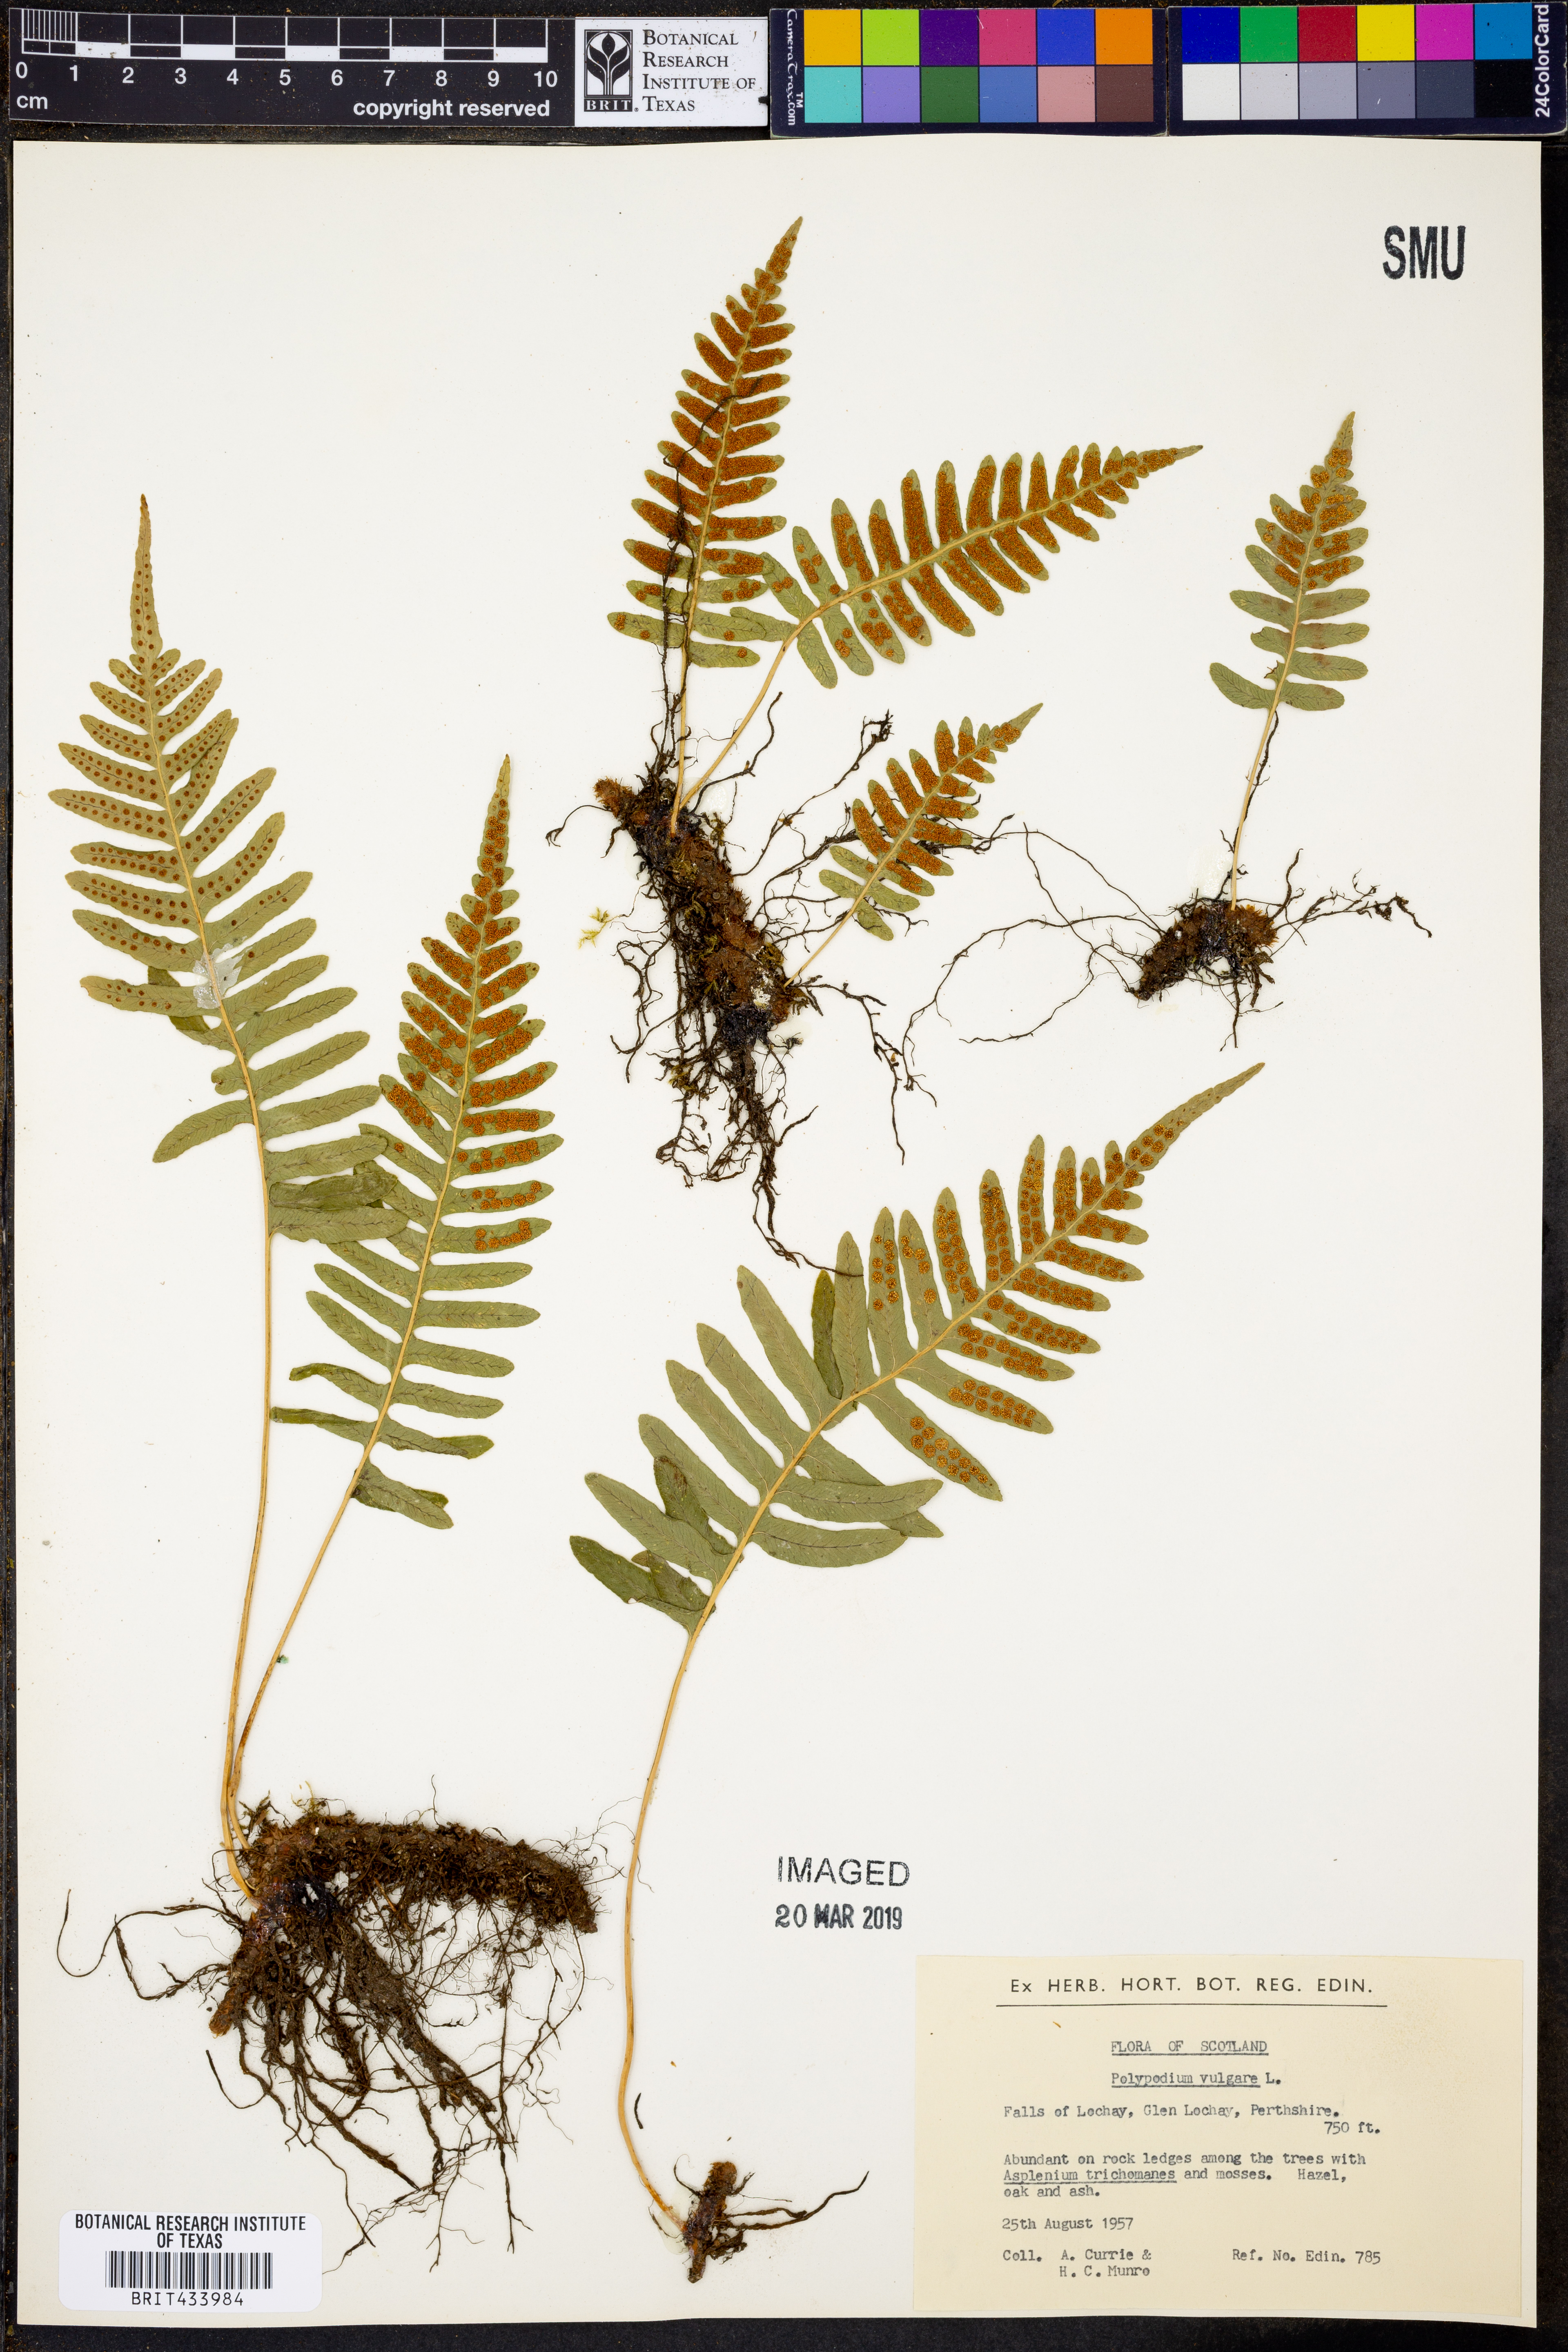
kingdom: Plantae
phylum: Tracheophyta
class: Polypodiopsida
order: Polypodiales
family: Polypodiaceae
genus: Polypodium
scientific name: Polypodium vulgare
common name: Common polypody
